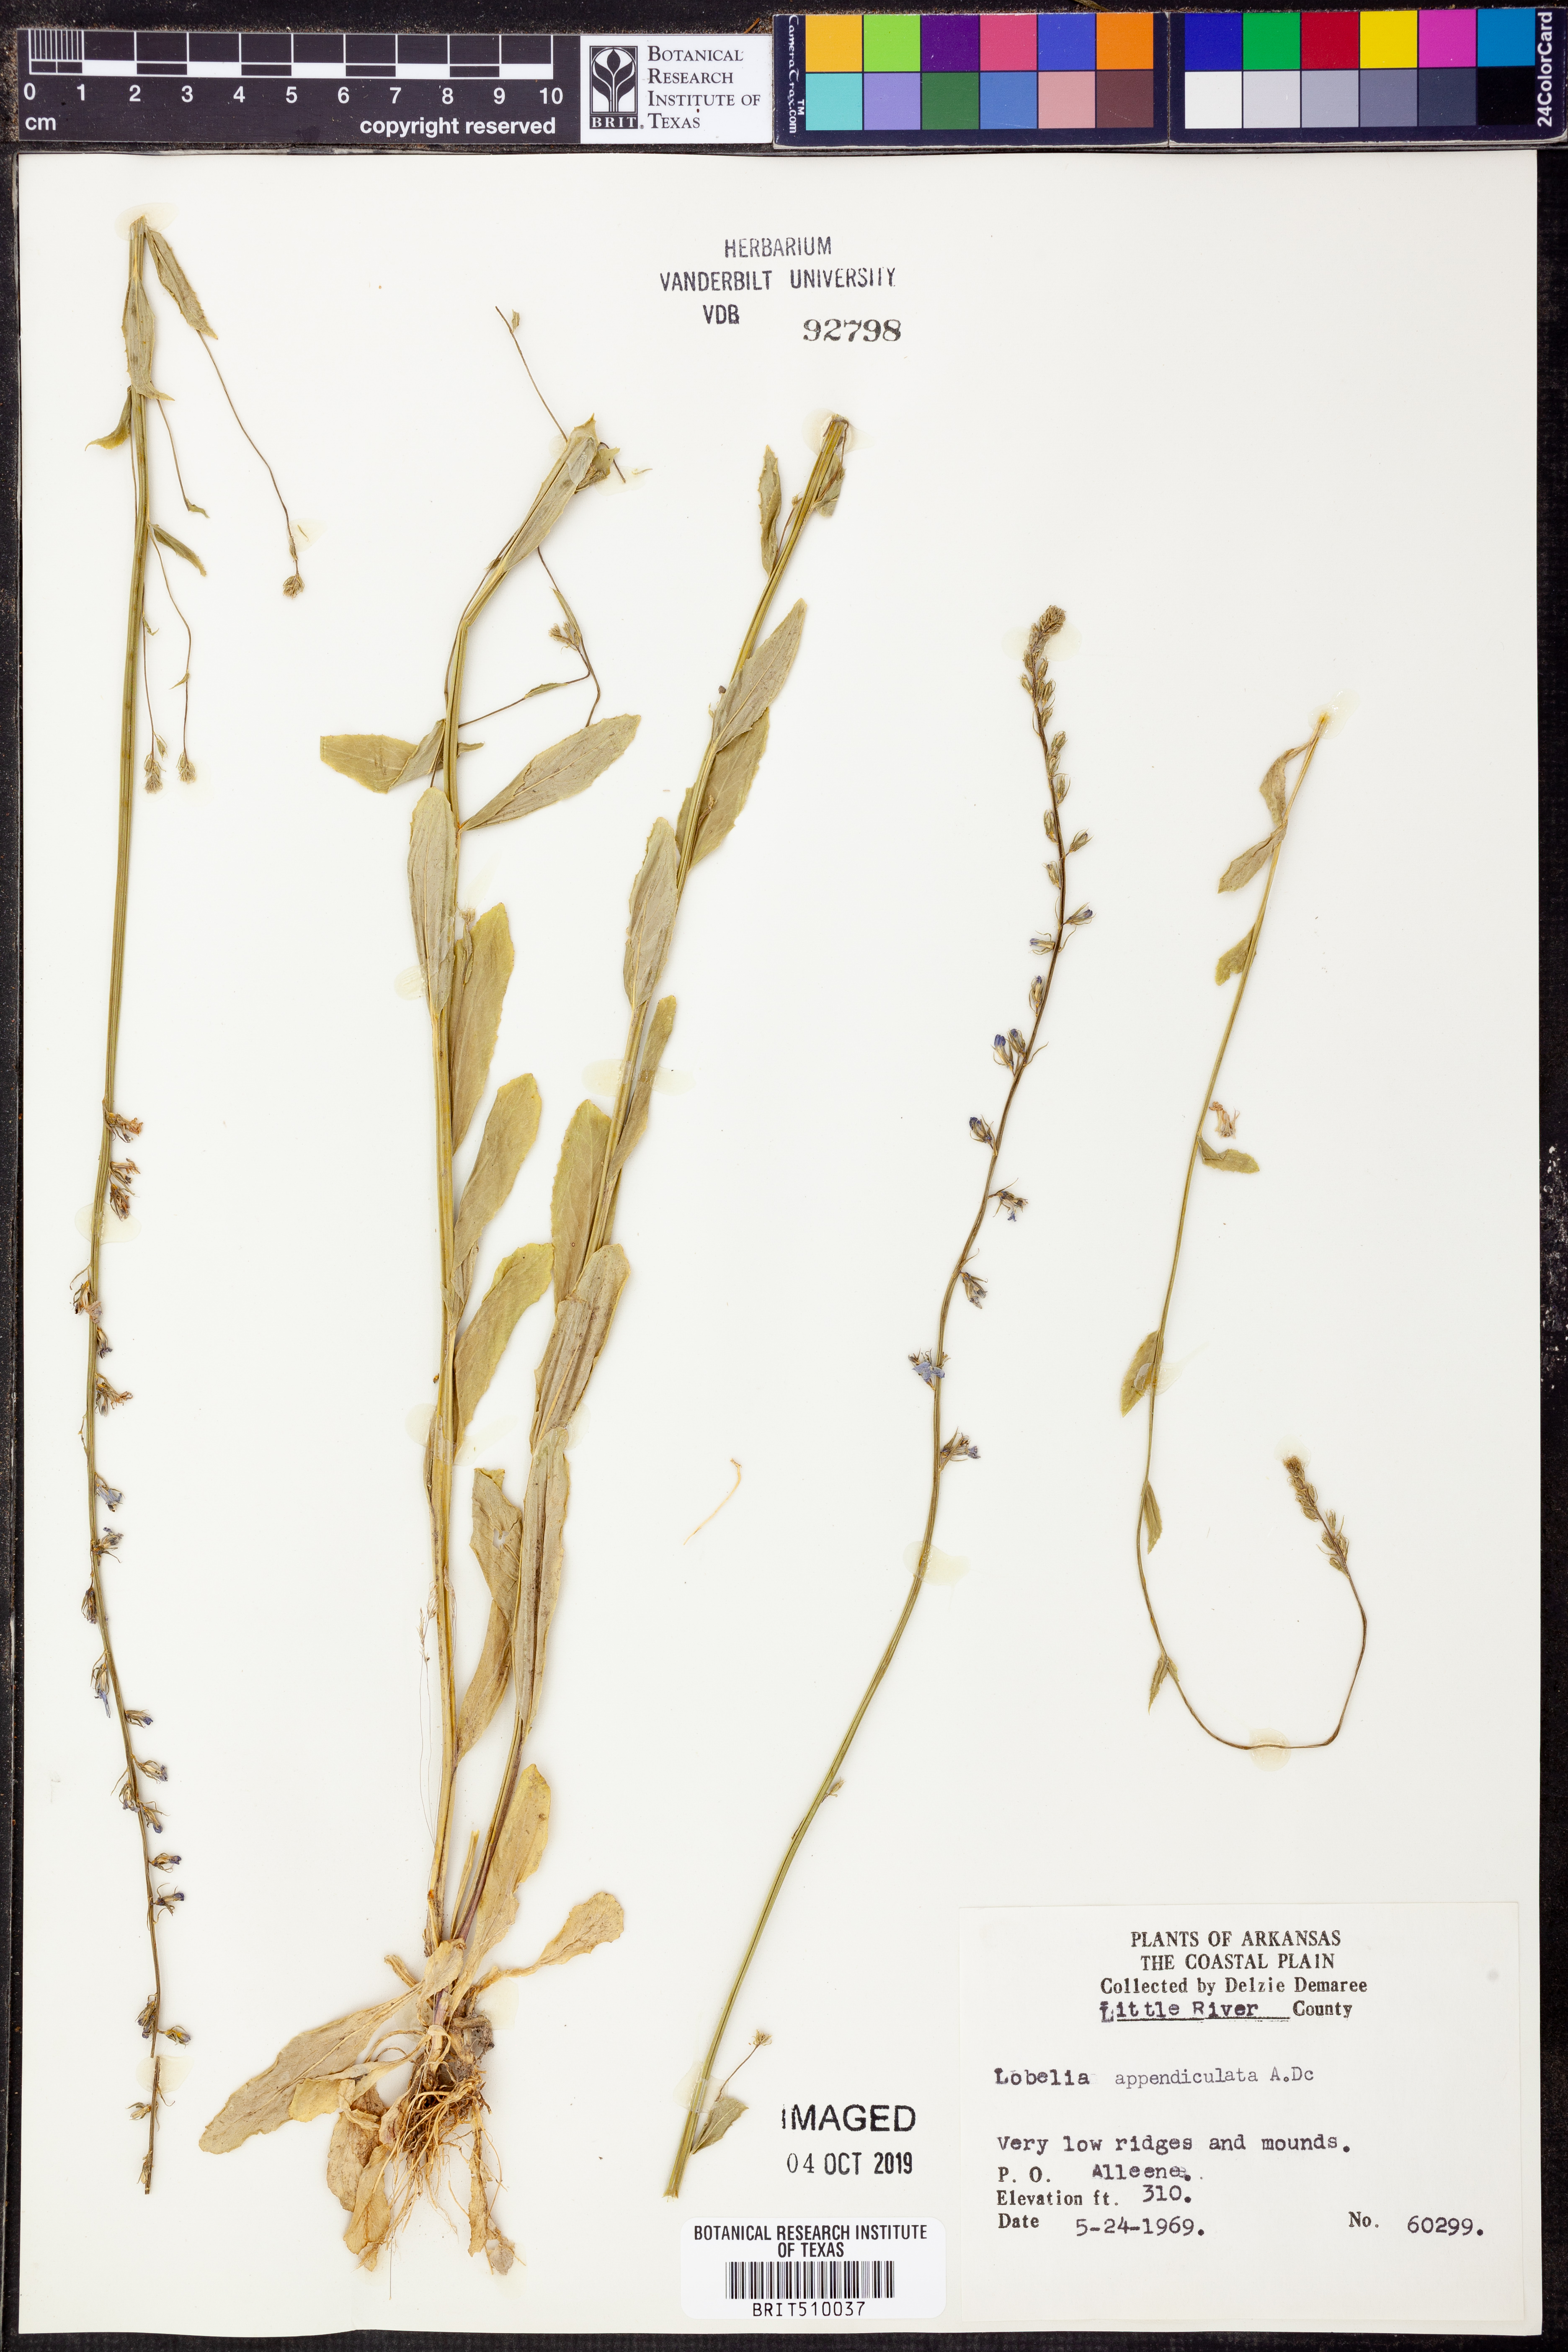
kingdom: Plantae
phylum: Tracheophyta
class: Magnoliopsida
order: Asterales
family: Campanulaceae
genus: Lobelia
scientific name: Lobelia appendiculata
